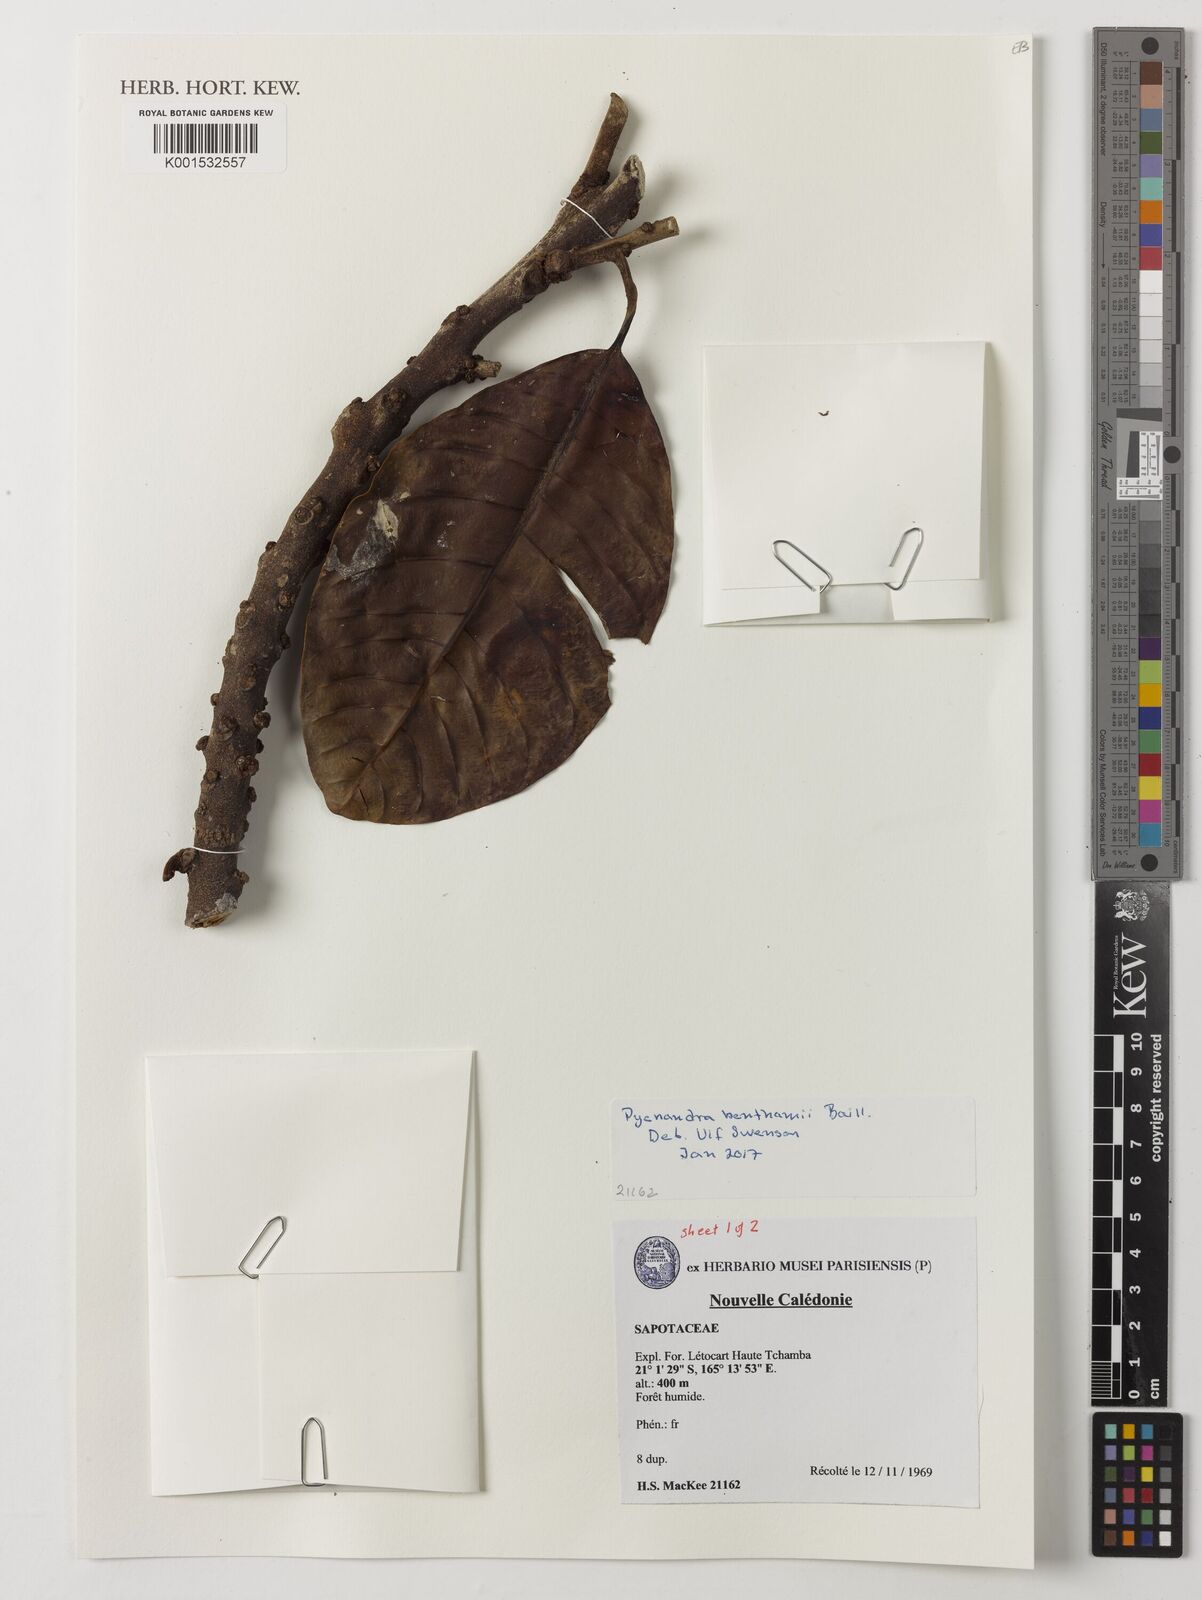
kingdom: Plantae
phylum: Tracheophyta
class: Magnoliopsida
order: Ericales
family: Sapotaceae
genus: Pycnandra
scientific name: Pycnandra benthamii
